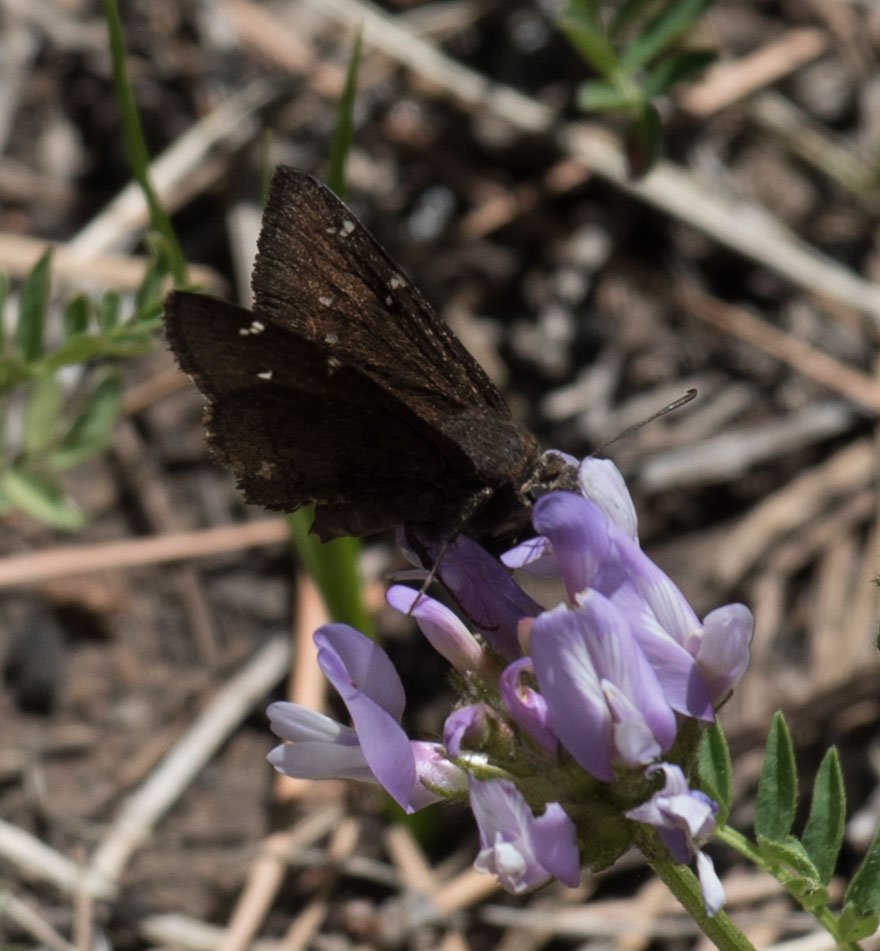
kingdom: Animalia
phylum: Arthropoda
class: Insecta
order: Lepidoptera
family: Hesperiidae
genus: Autochton
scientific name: Autochton
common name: Northern Cloudywing
